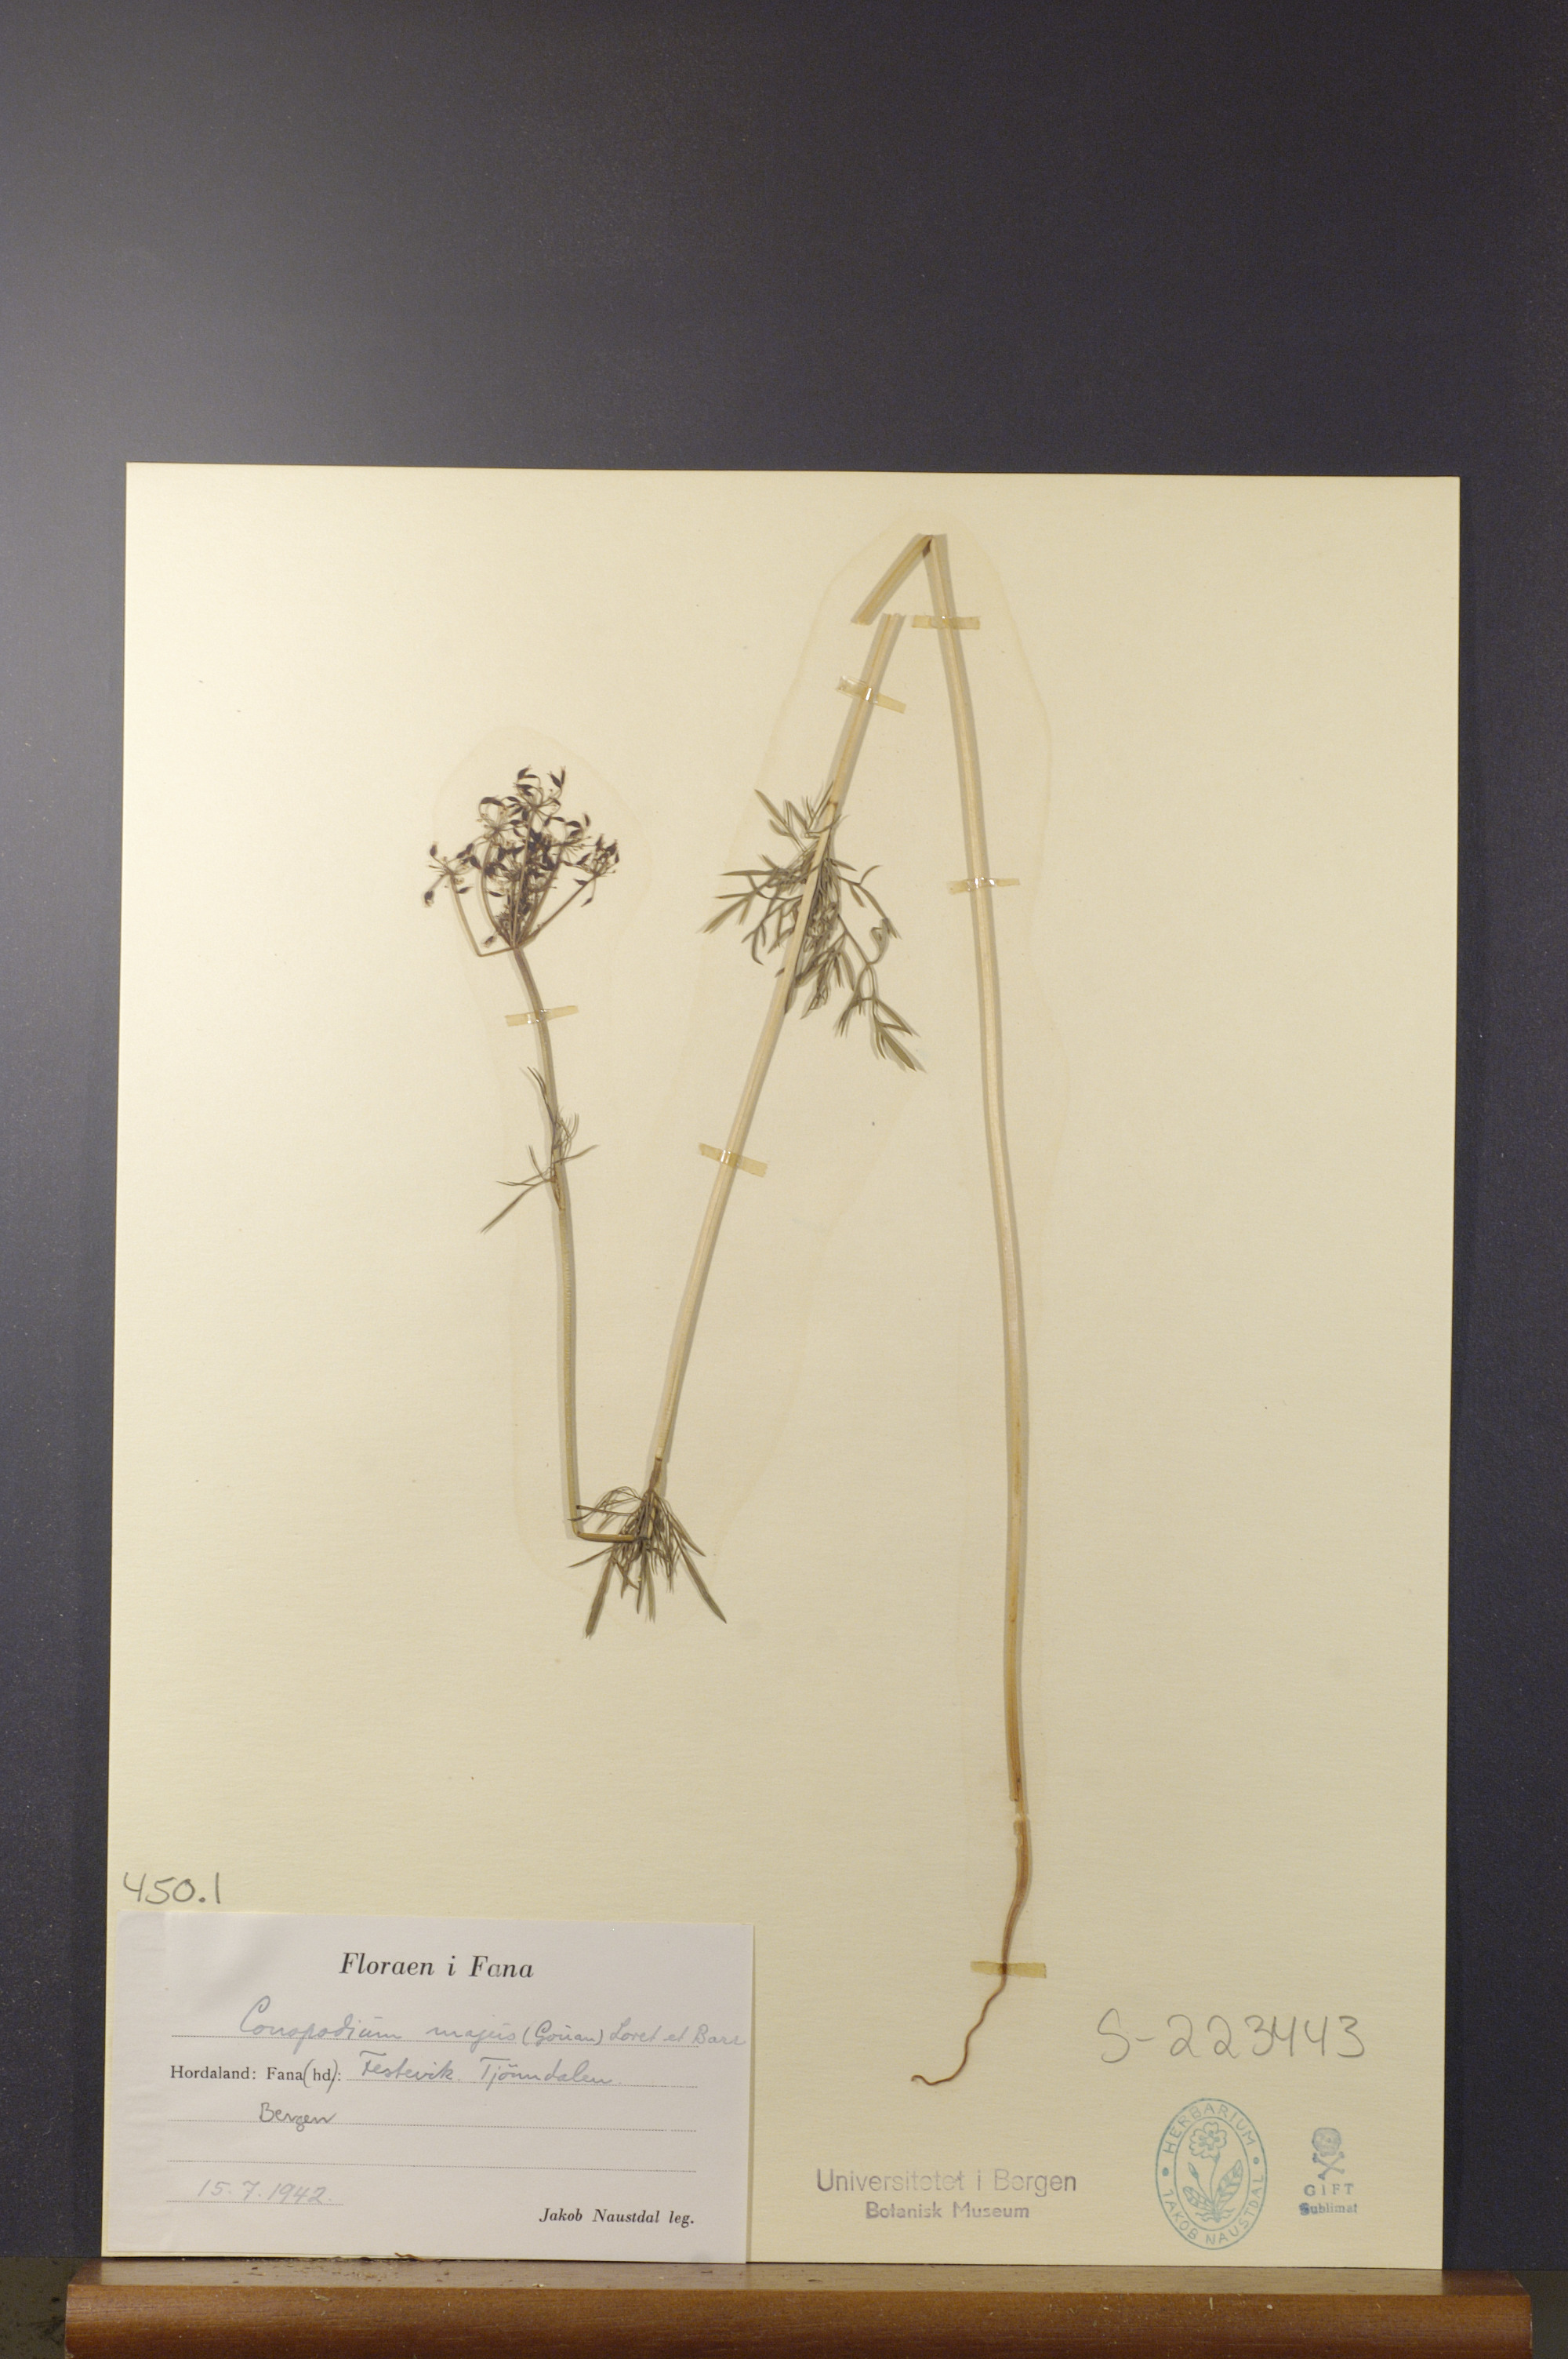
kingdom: Plantae
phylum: Tracheophyta
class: Magnoliopsida
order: Apiales
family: Apiaceae
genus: Conopodium
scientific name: Conopodium majus
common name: Pignut
